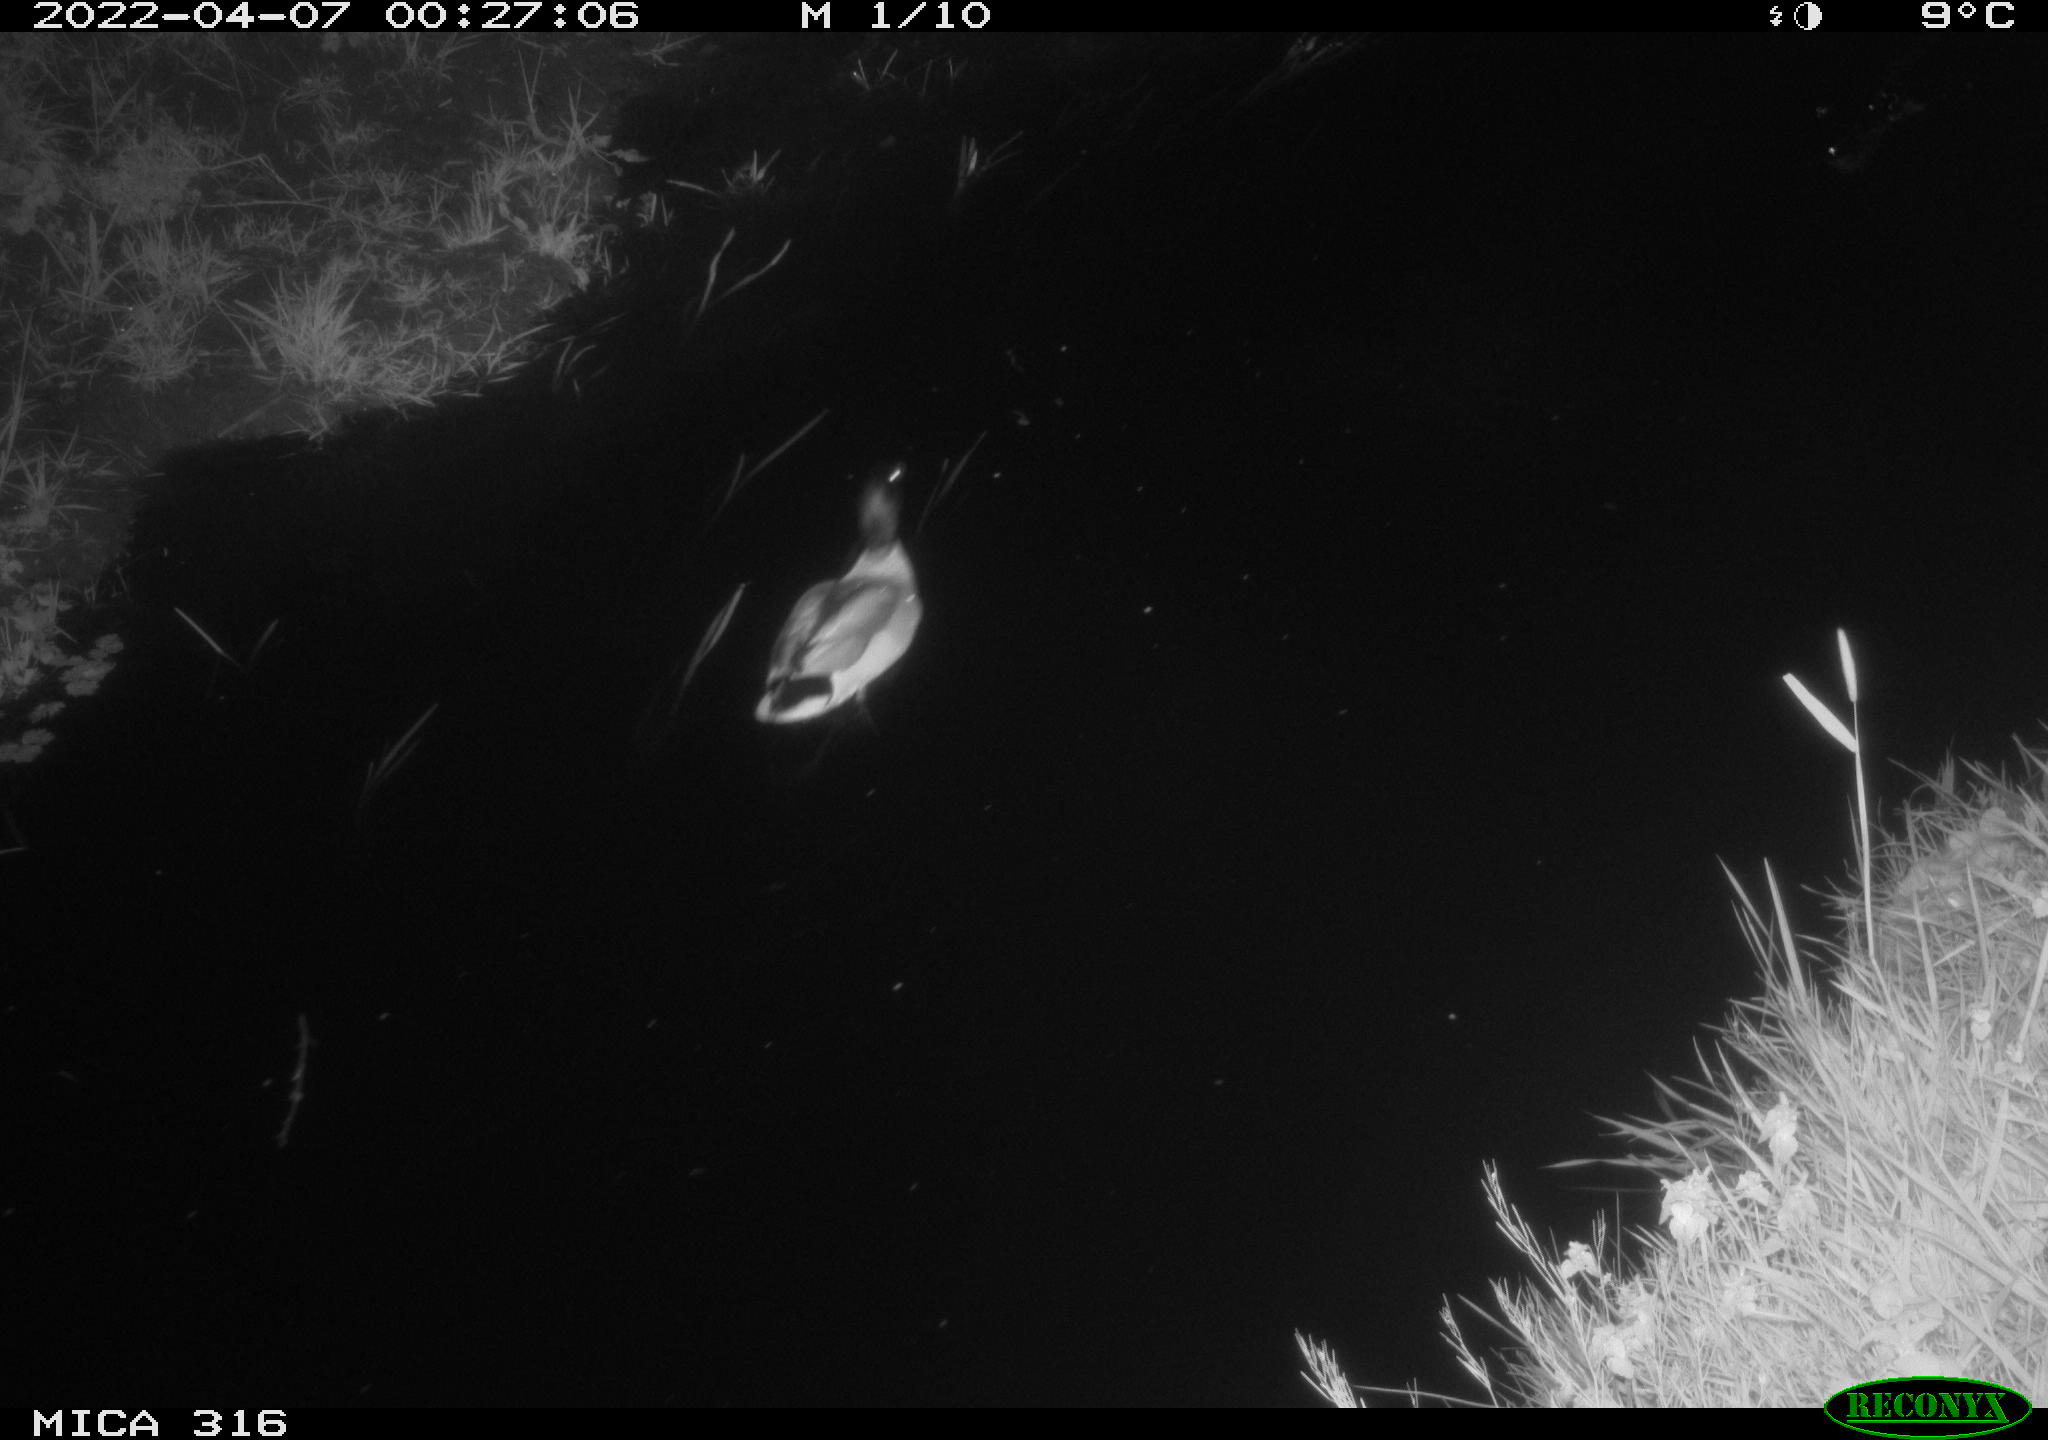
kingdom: Animalia
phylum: Chordata
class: Aves
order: Anseriformes
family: Anatidae
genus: Anas
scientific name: Anas platyrhynchos
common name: Mallard
